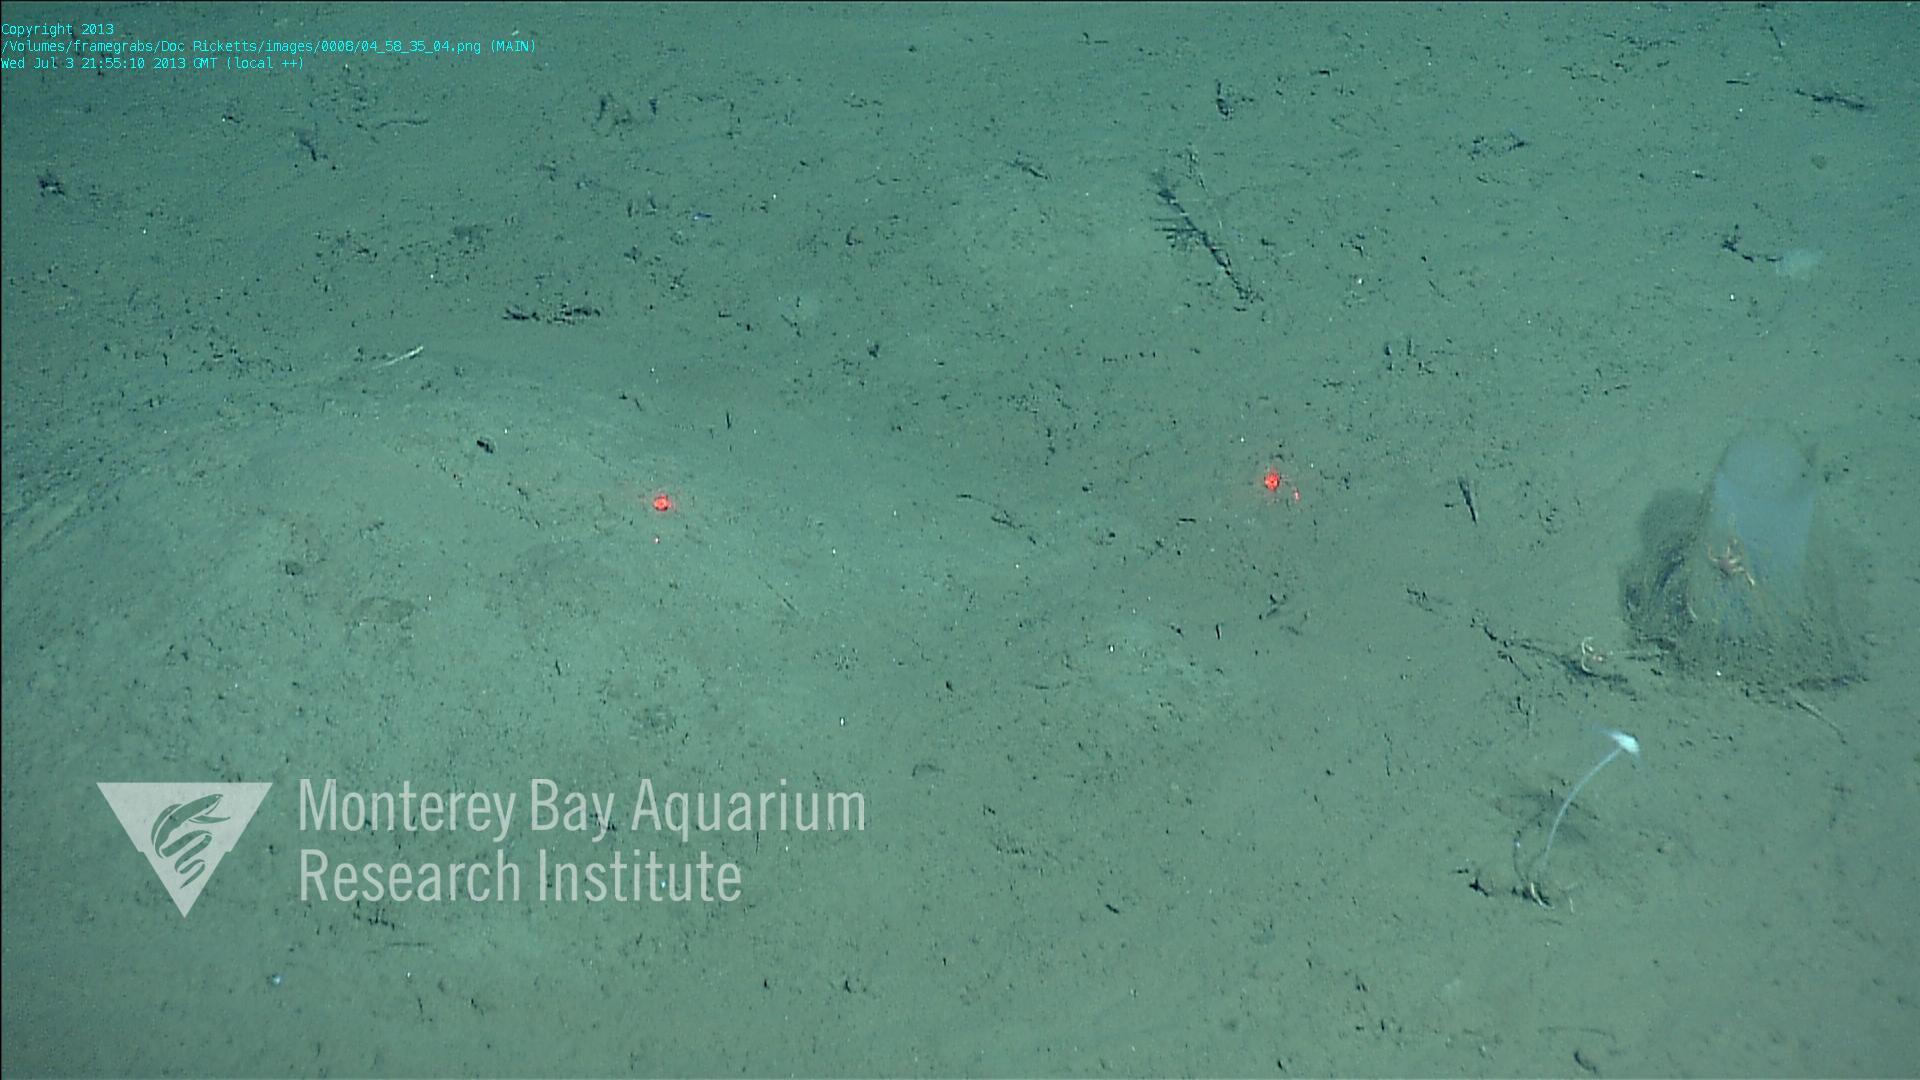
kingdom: Animalia
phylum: Porifera
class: Hexactinellida
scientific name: Hexactinellida
